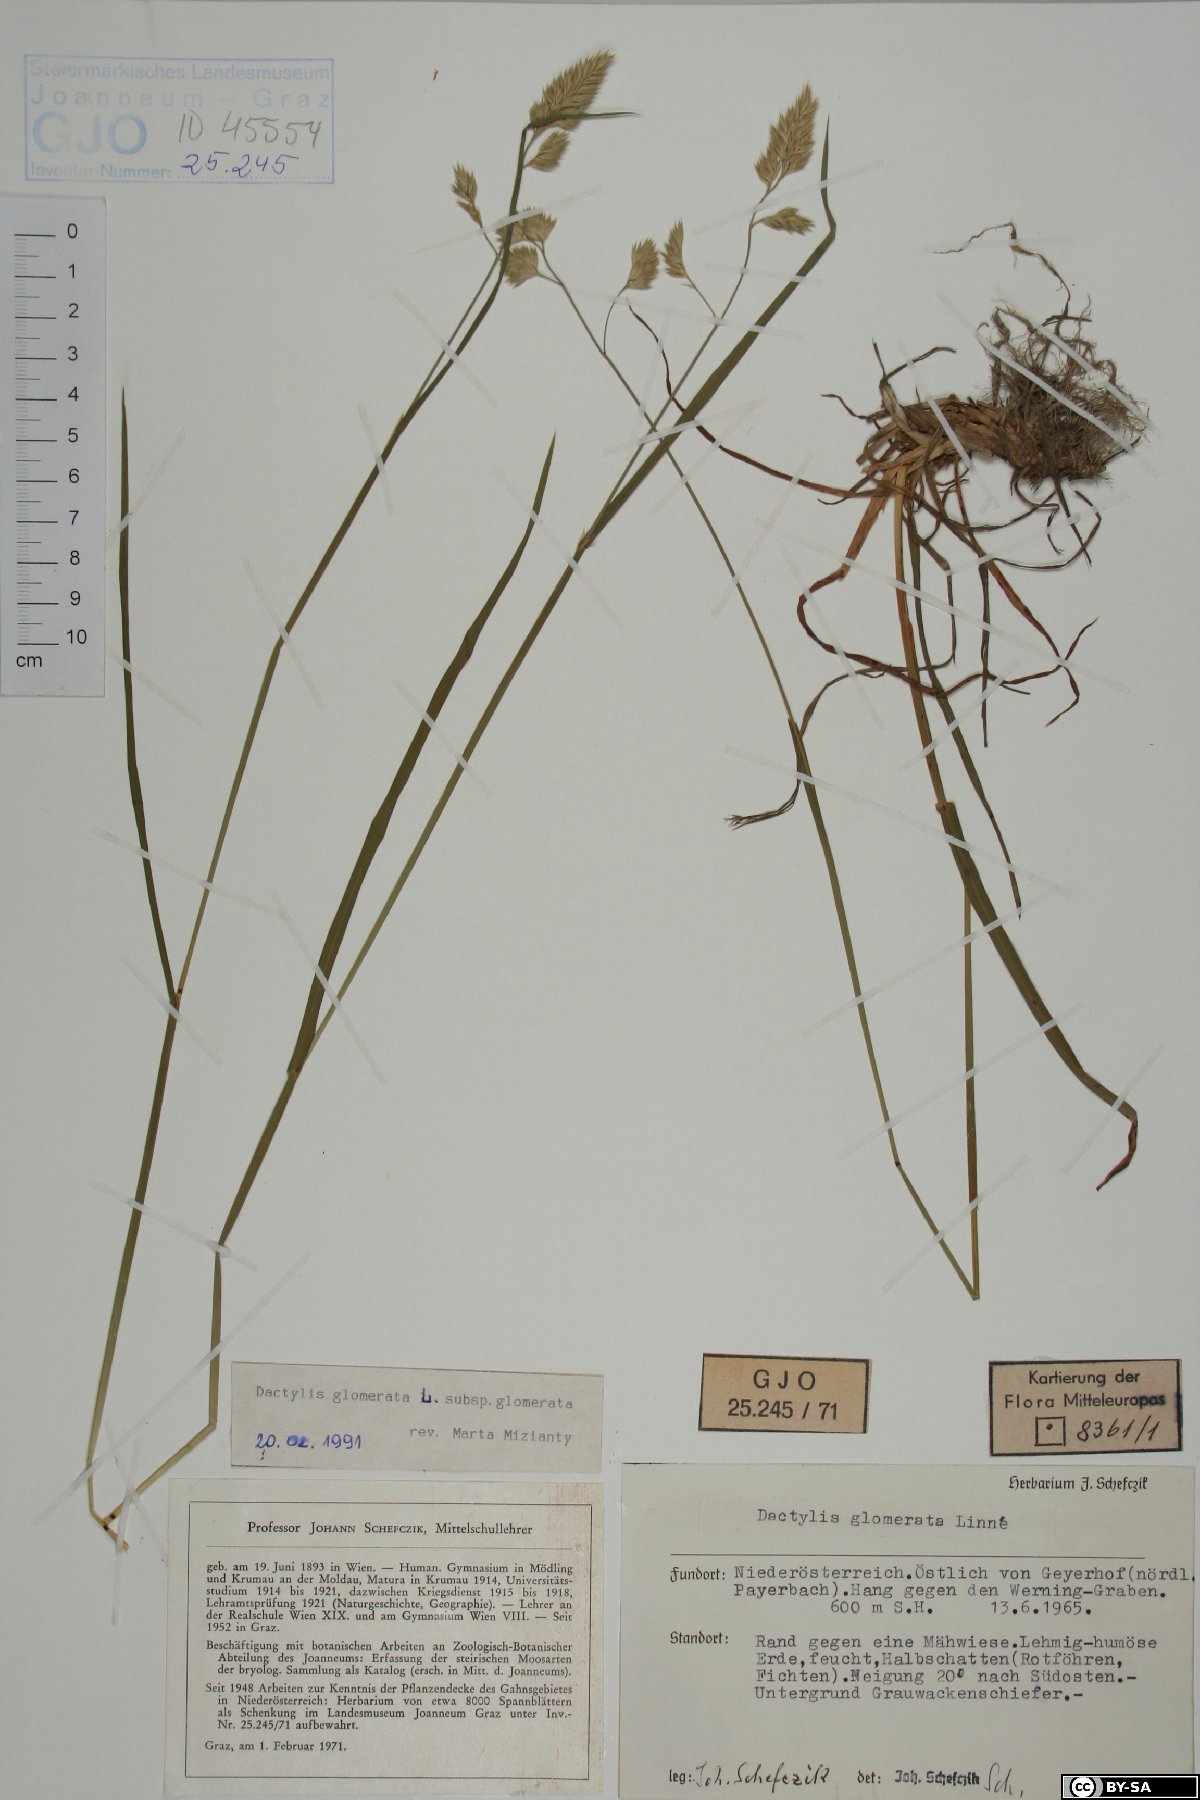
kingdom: Plantae
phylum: Tracheophyta
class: Liliopsida
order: Poales
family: Poaceae
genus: Dactylis
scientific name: Dactylis glomerata
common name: Orchardgrass
